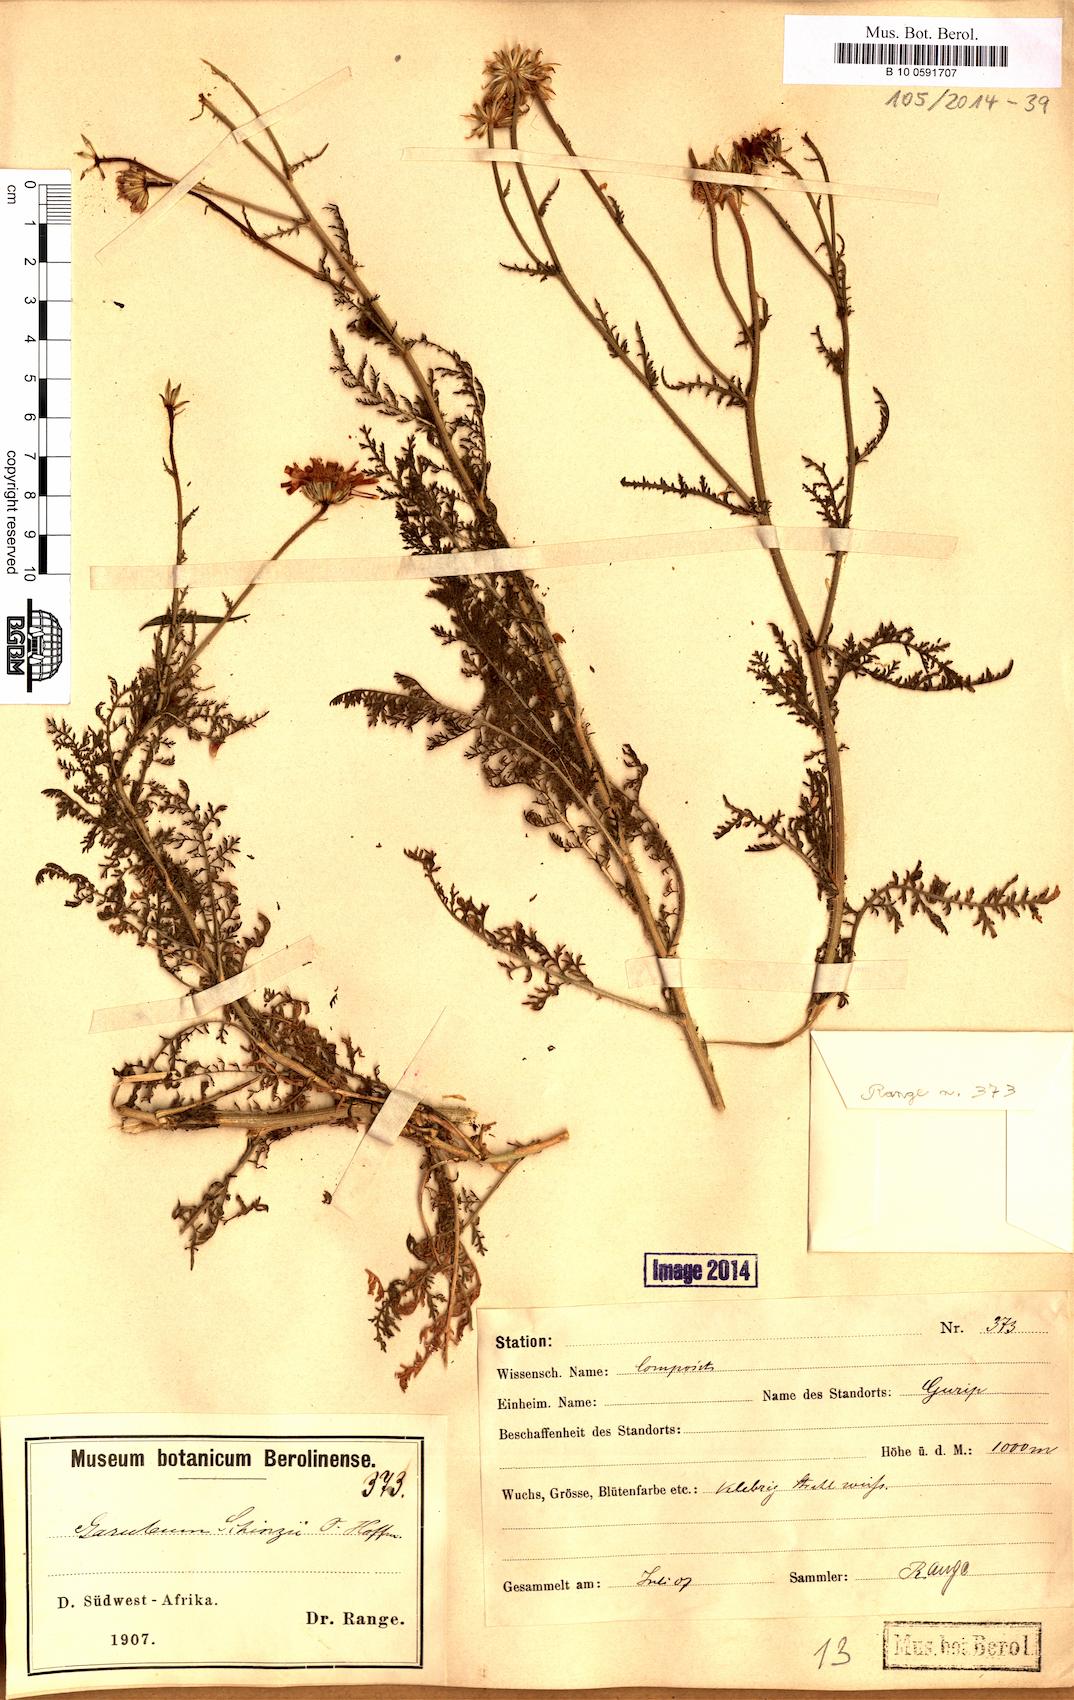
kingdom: Plantae
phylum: Tracheophyta
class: Magnoliopsida
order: Asterales
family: Asteraceae
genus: Garuleum
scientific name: Garuleum schinzii
